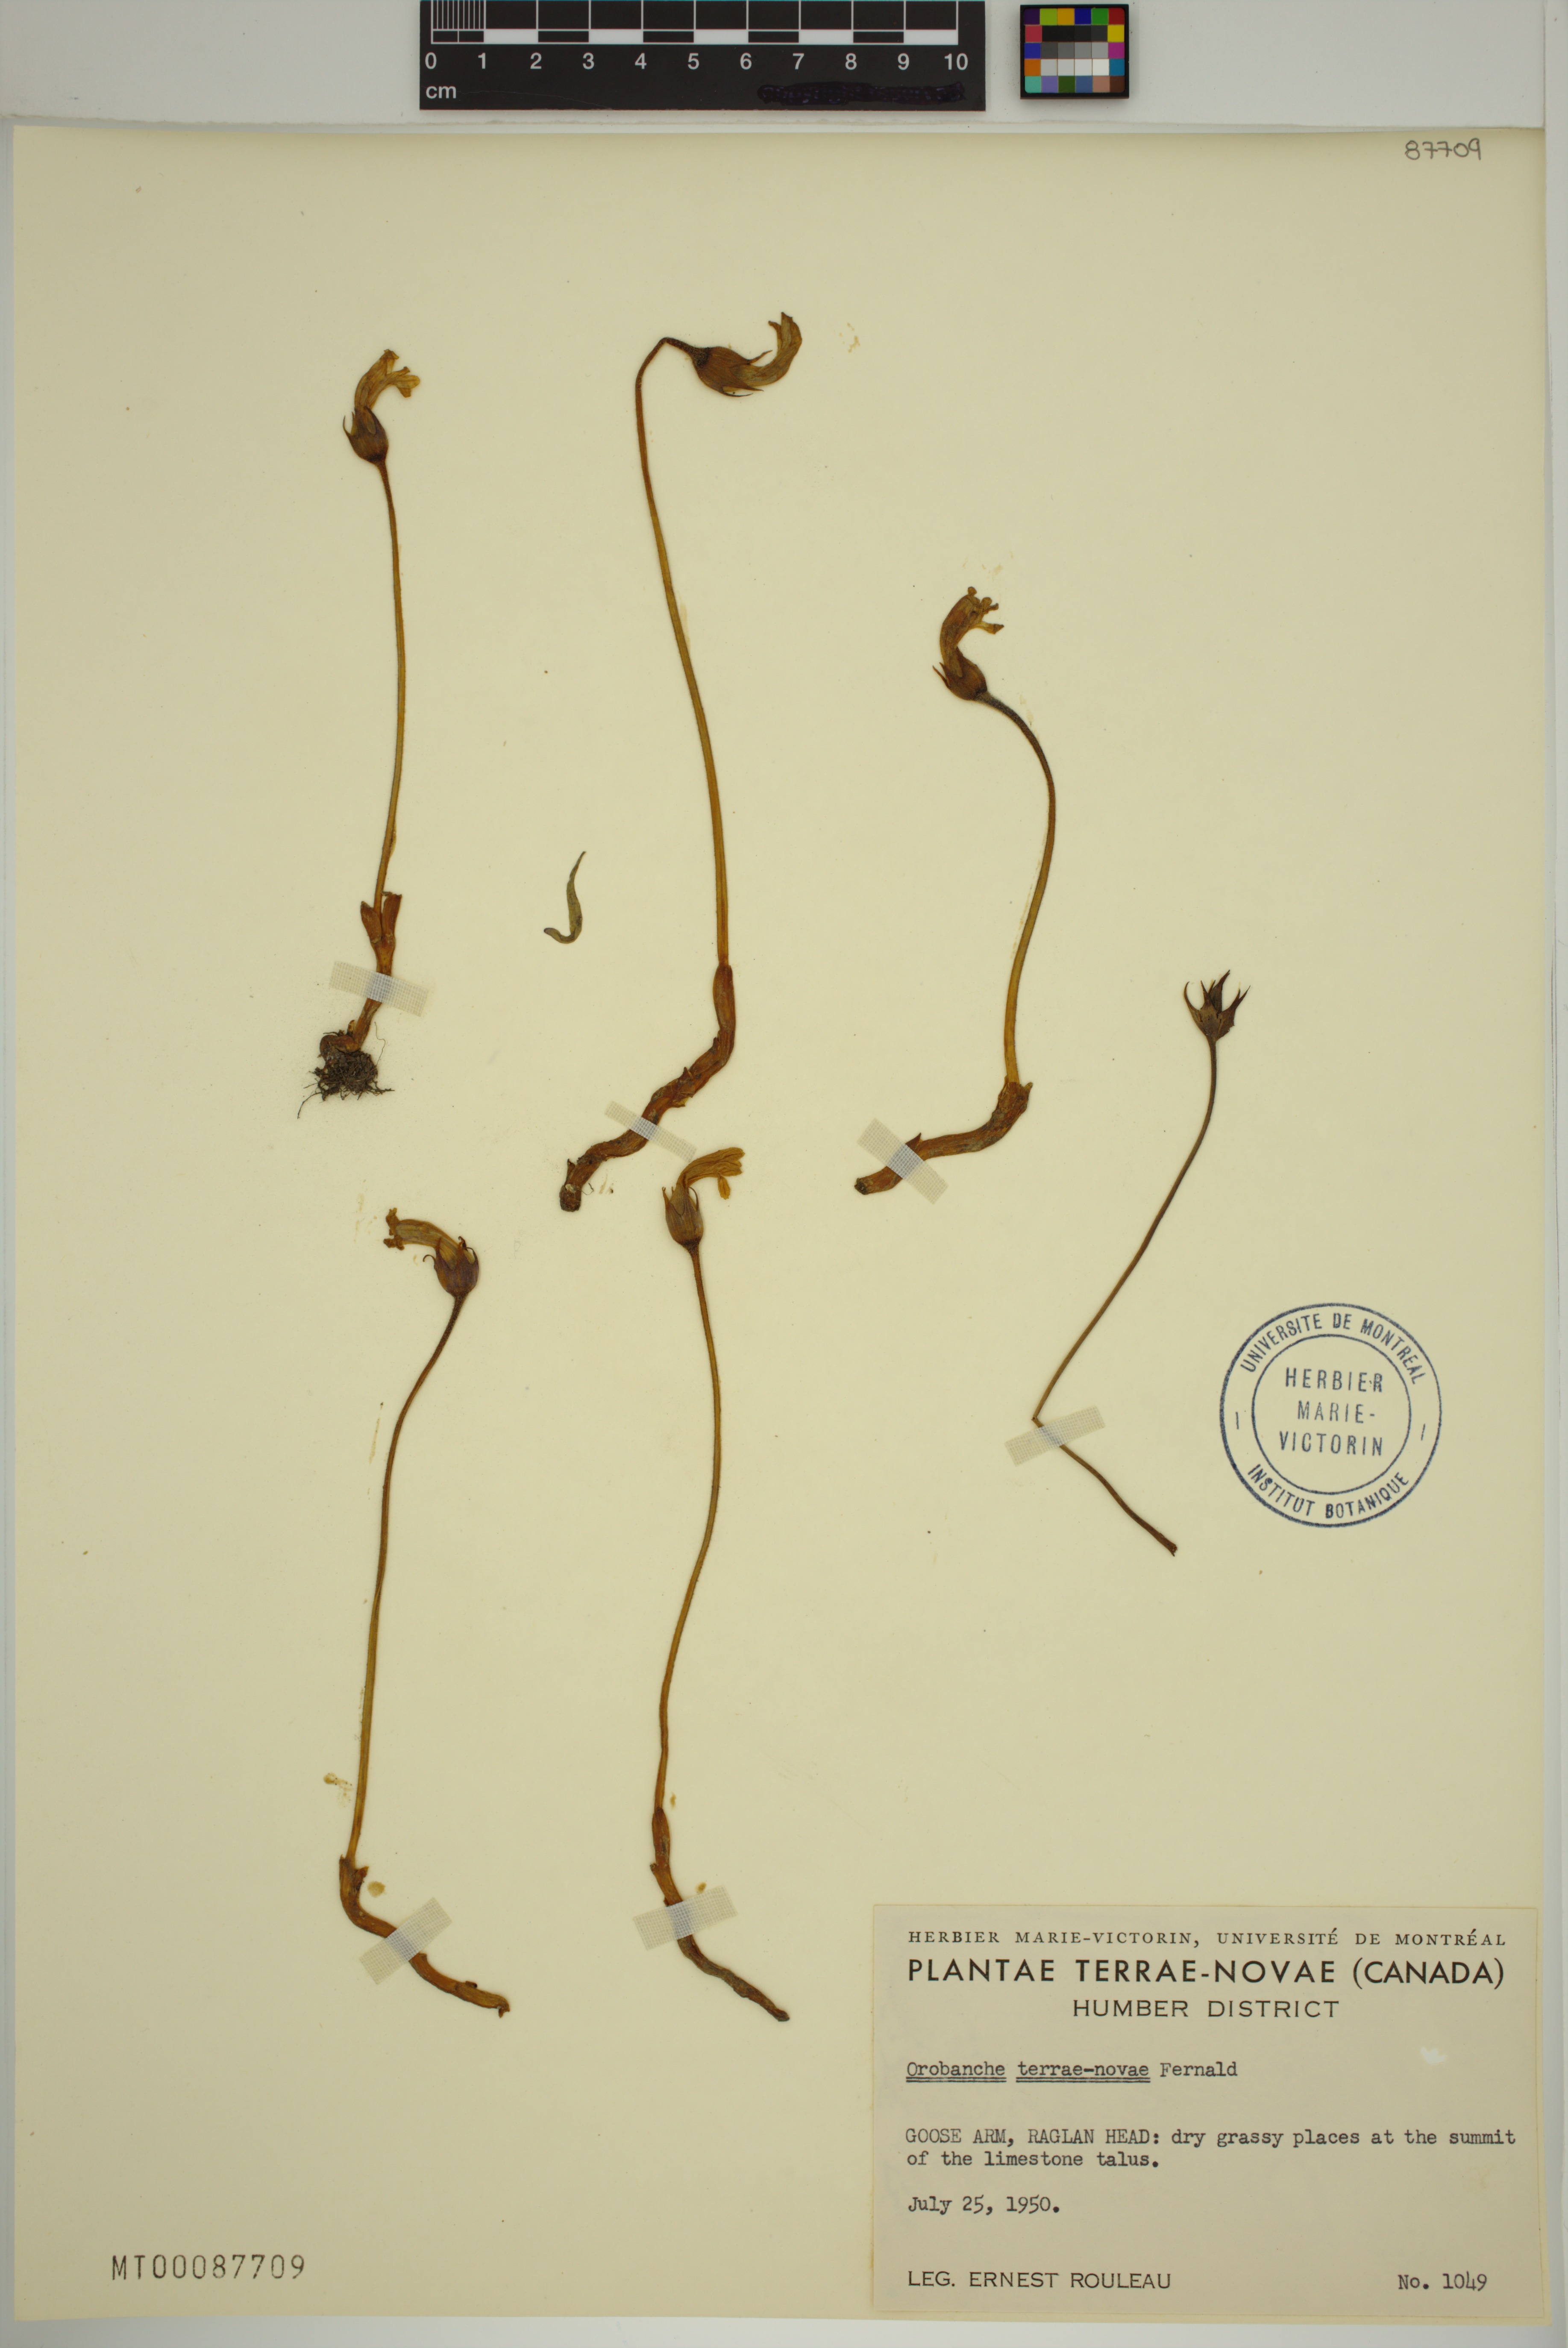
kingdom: Plantae
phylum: Tracheophyta
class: Magnoliopsida
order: Lamiales
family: Orobanchaceae
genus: Aphyllon
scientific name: Aphyllon uniflorum
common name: One-flowered broomrape
